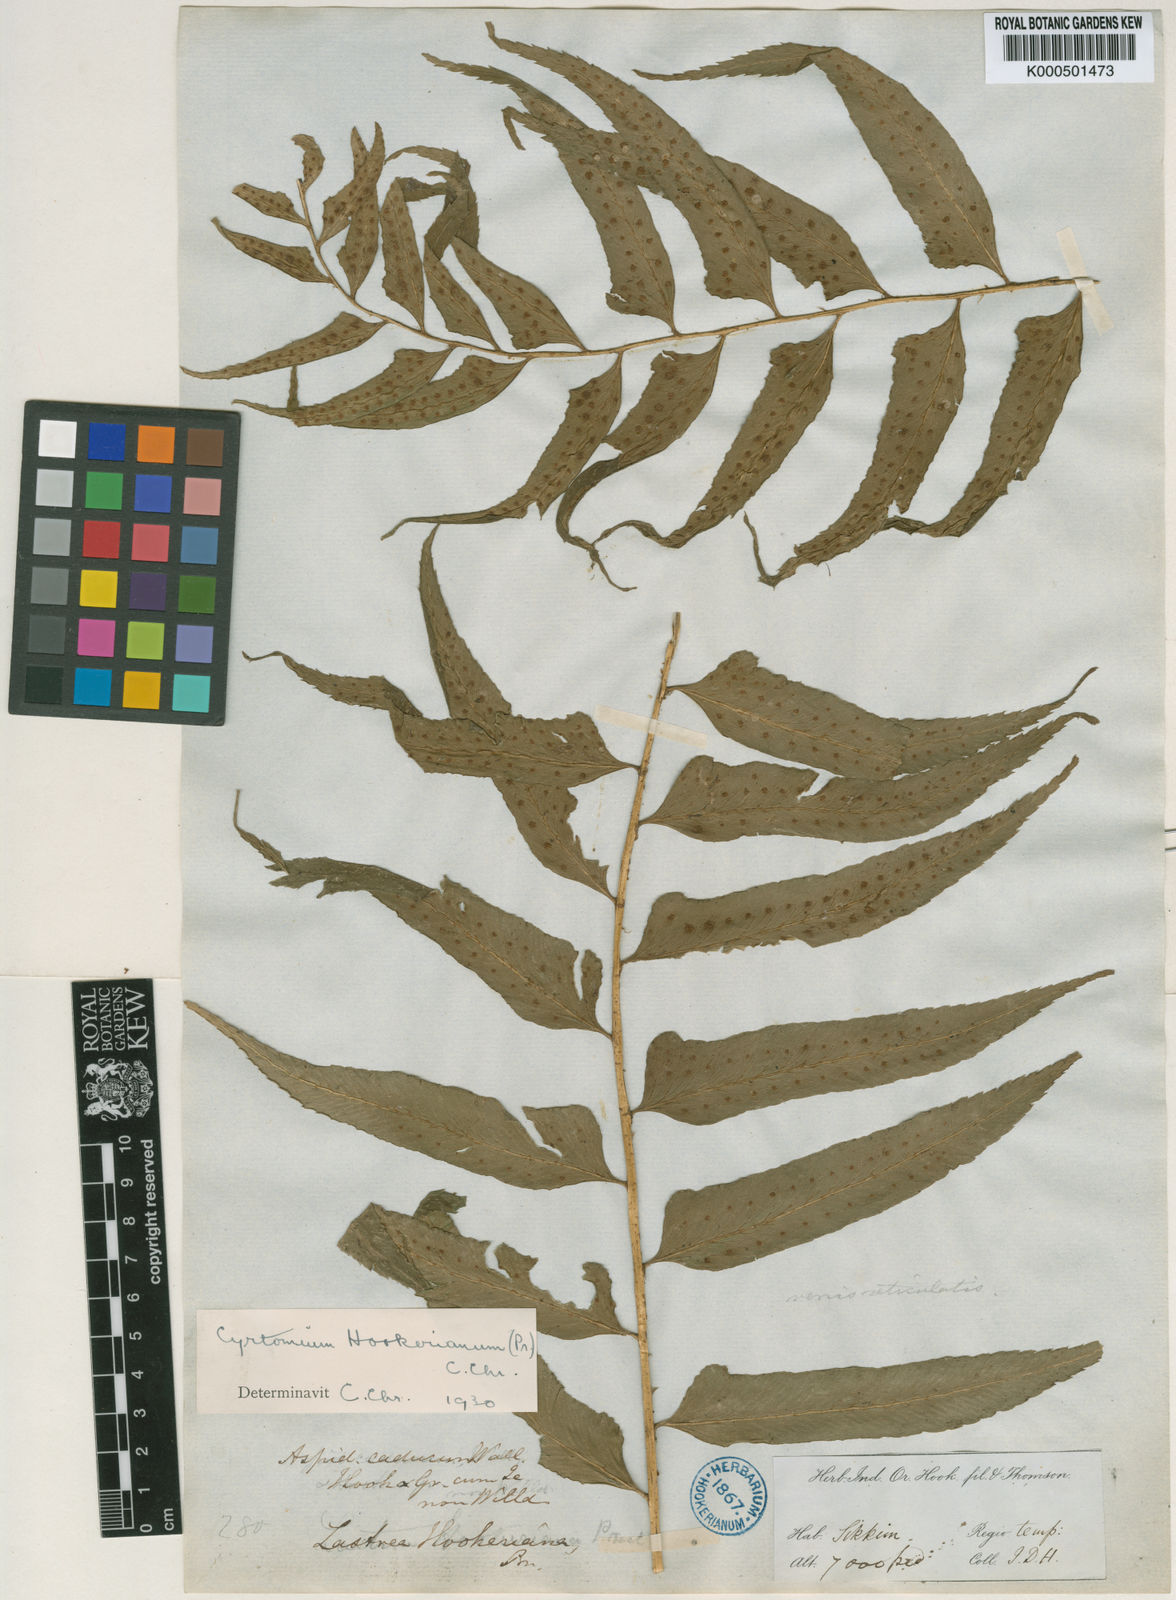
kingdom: Plantae
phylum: Tracheophyta
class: Polypodiopsida
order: Polypodiales
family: Dryopteridaceae
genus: Polystichum
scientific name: Polystichum hookerianum
